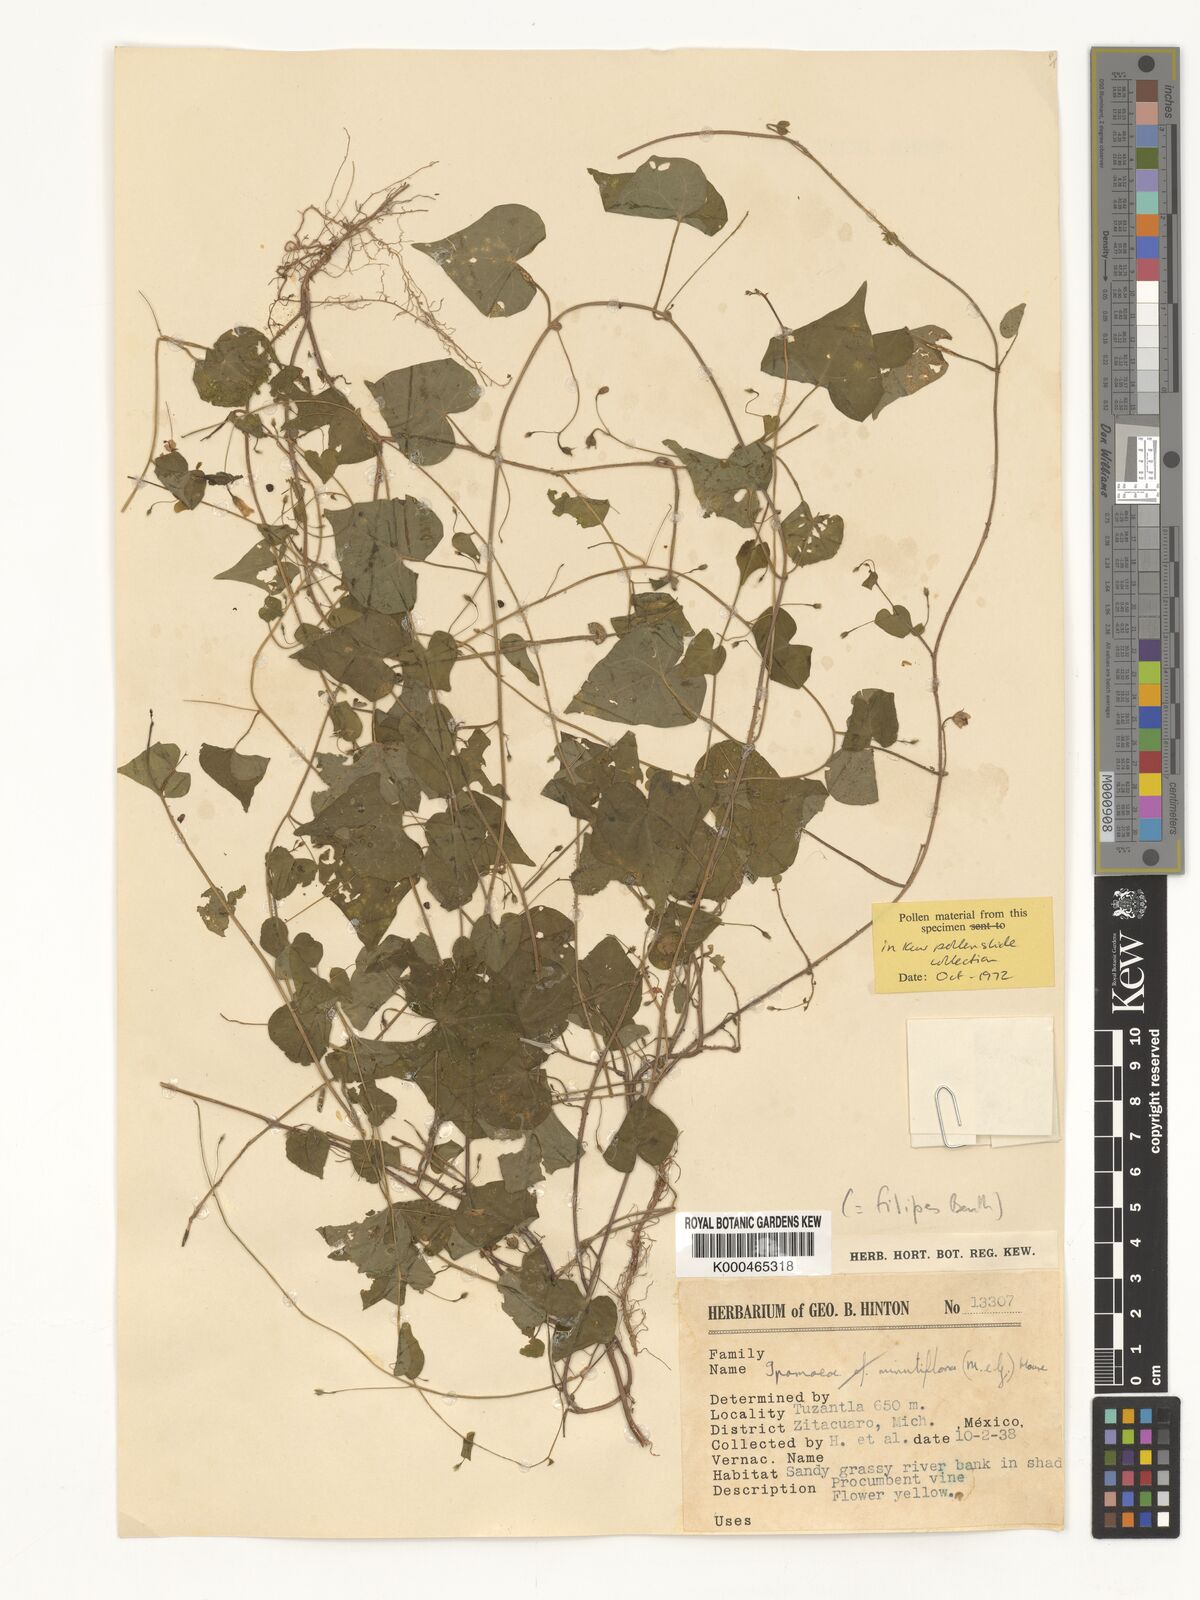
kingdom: Plantae
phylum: Tracheophyta
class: Magnoliopsida
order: Solanales
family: Convolvulaceae
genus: Ipomoea
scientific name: Ipomoea minutiflora
